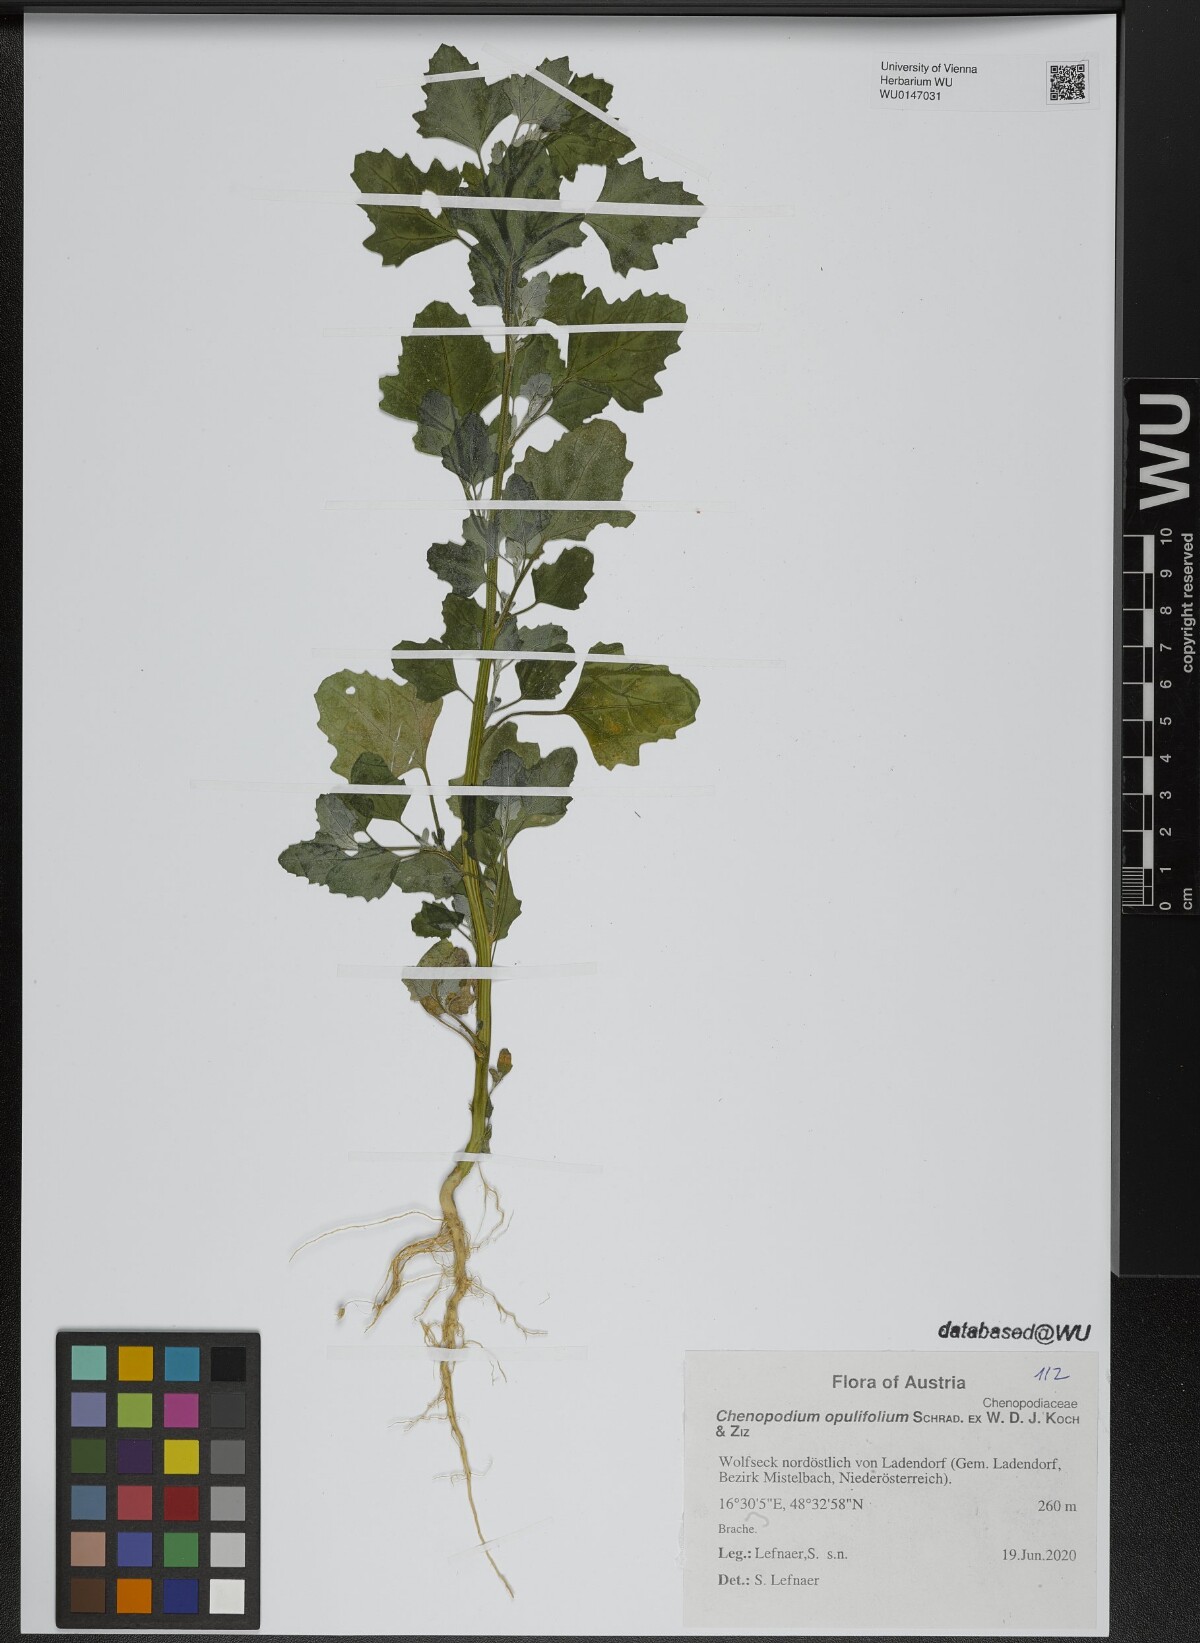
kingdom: Plantae
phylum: Tracheophyta
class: Magnoliopsida
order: Caryophyllales
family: Amaranthaceae
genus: Chenopodium
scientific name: Chenopodium opulifolium
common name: Grey goosefoot
